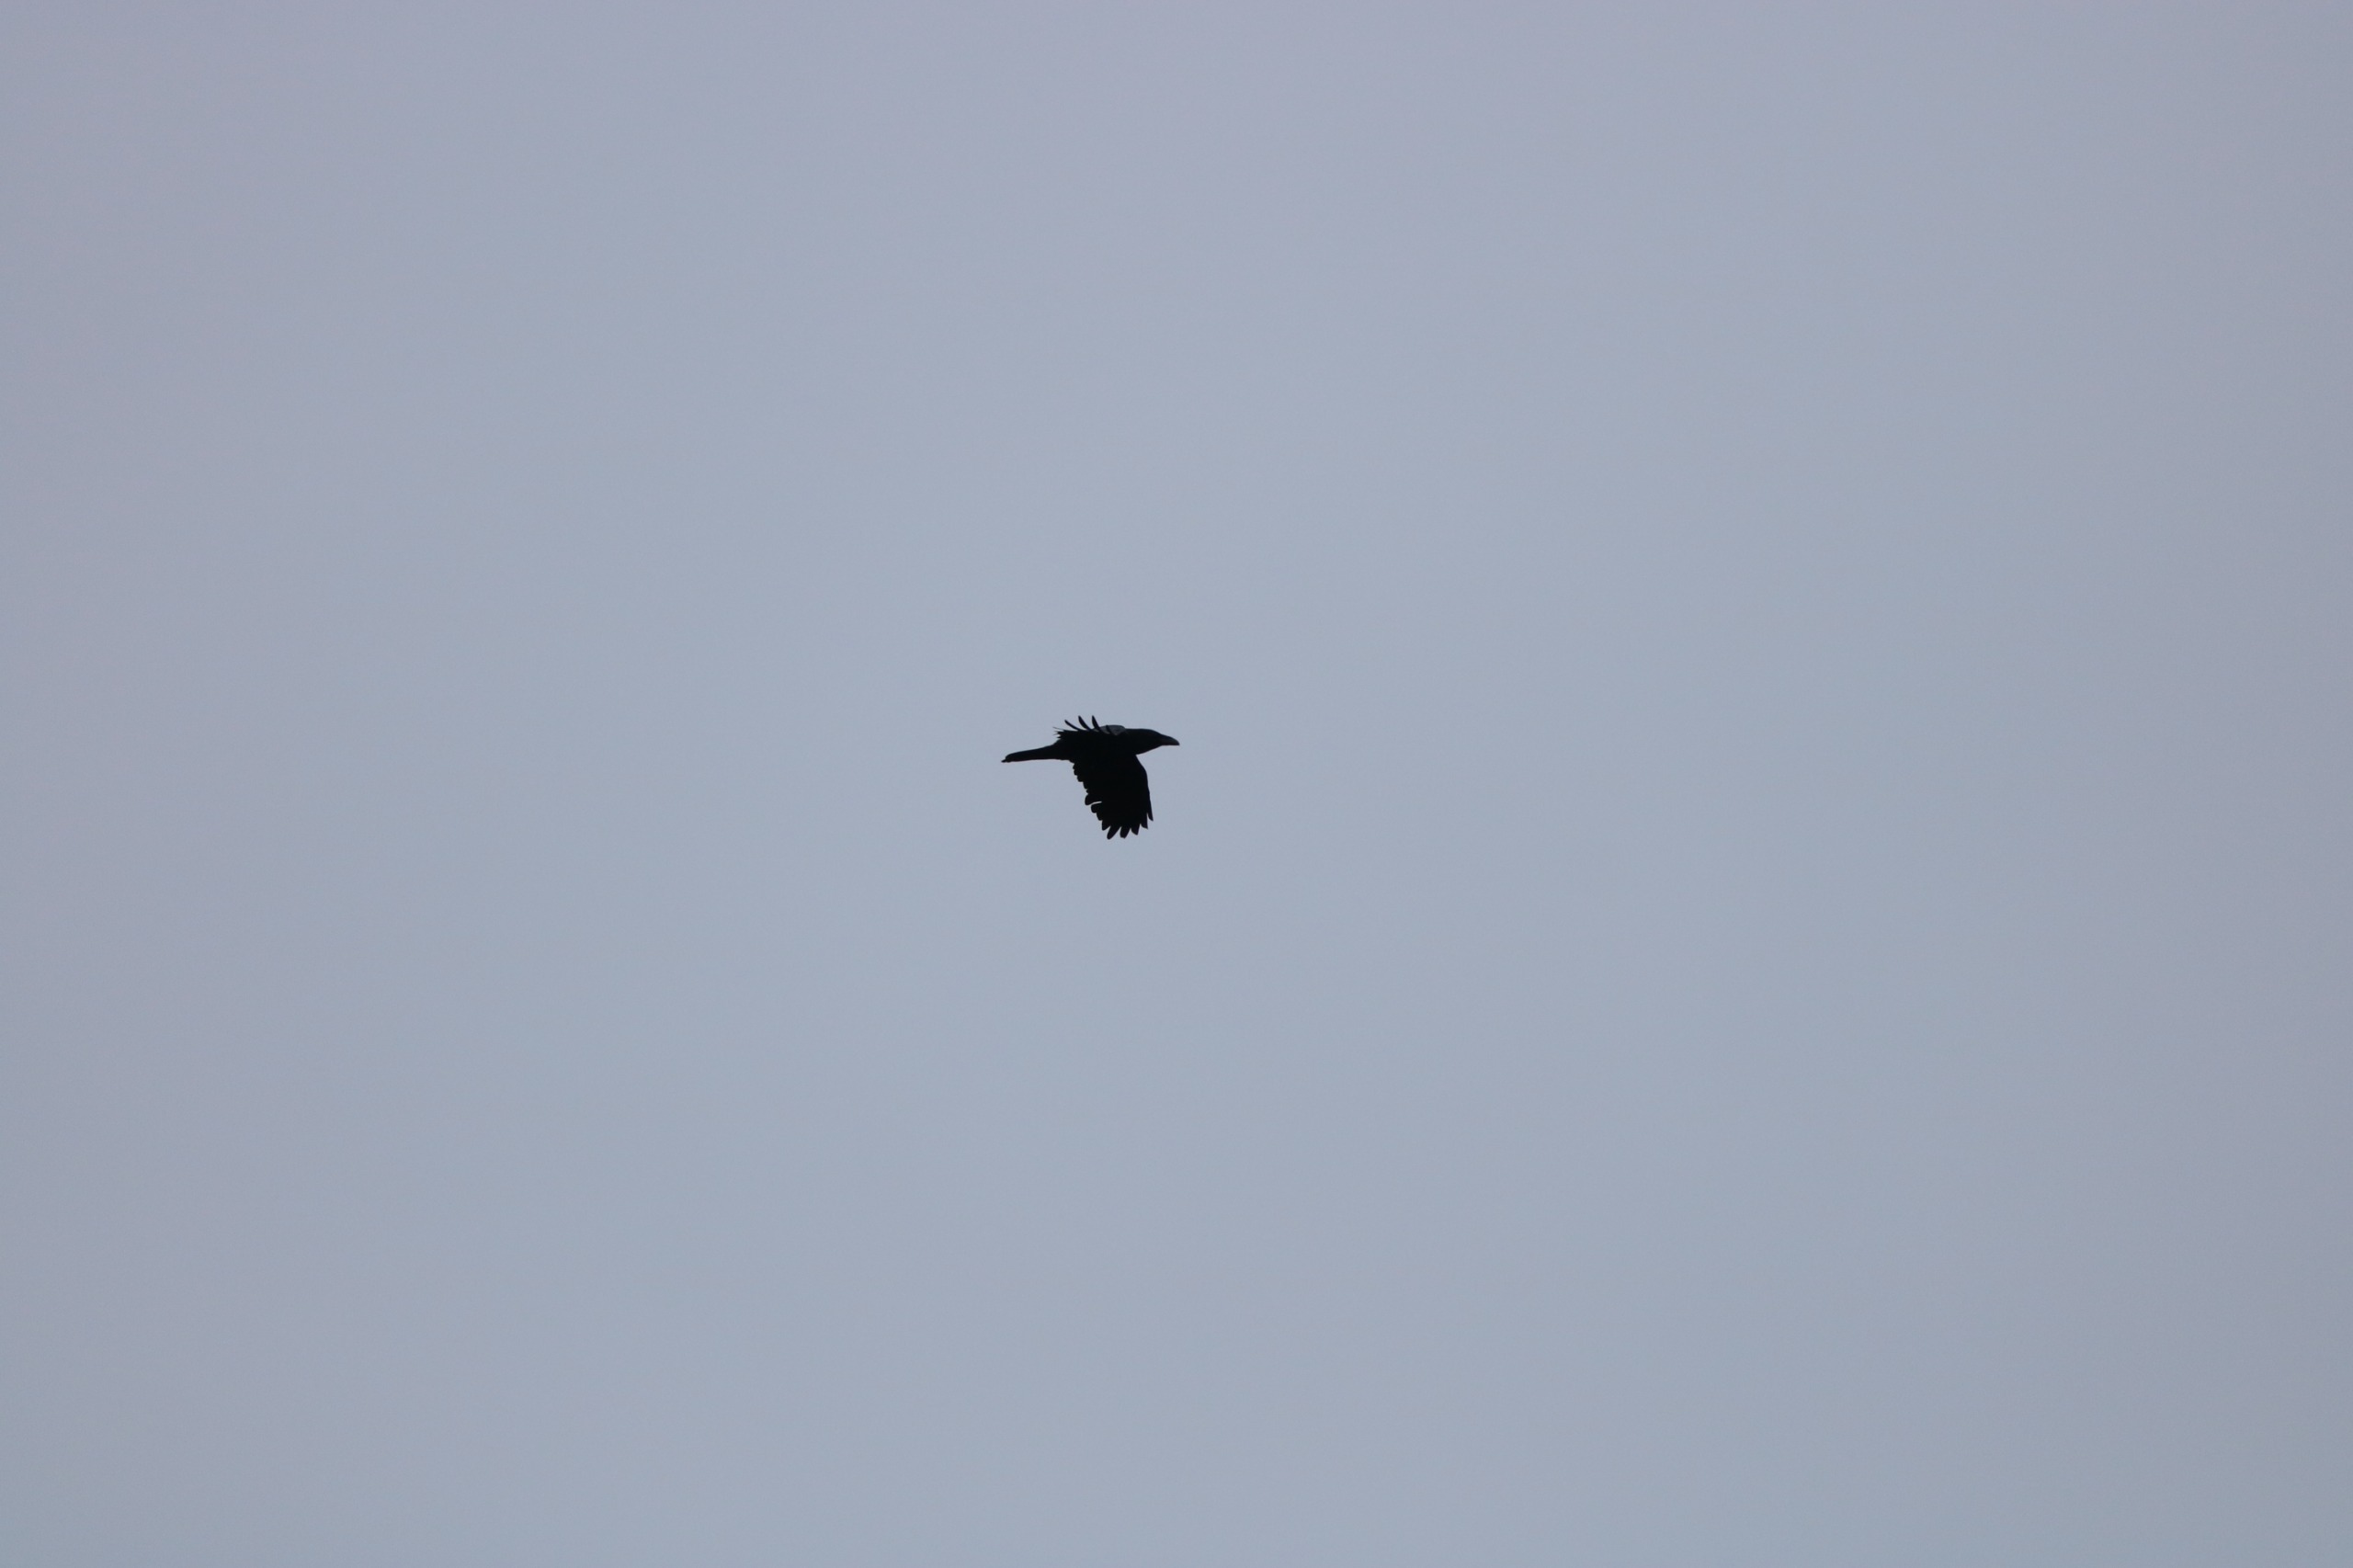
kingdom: Animalia
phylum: Chordata
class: Aves
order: Passeriformes
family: Corvidae
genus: Corvus
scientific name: Corvus corax
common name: Ravn
